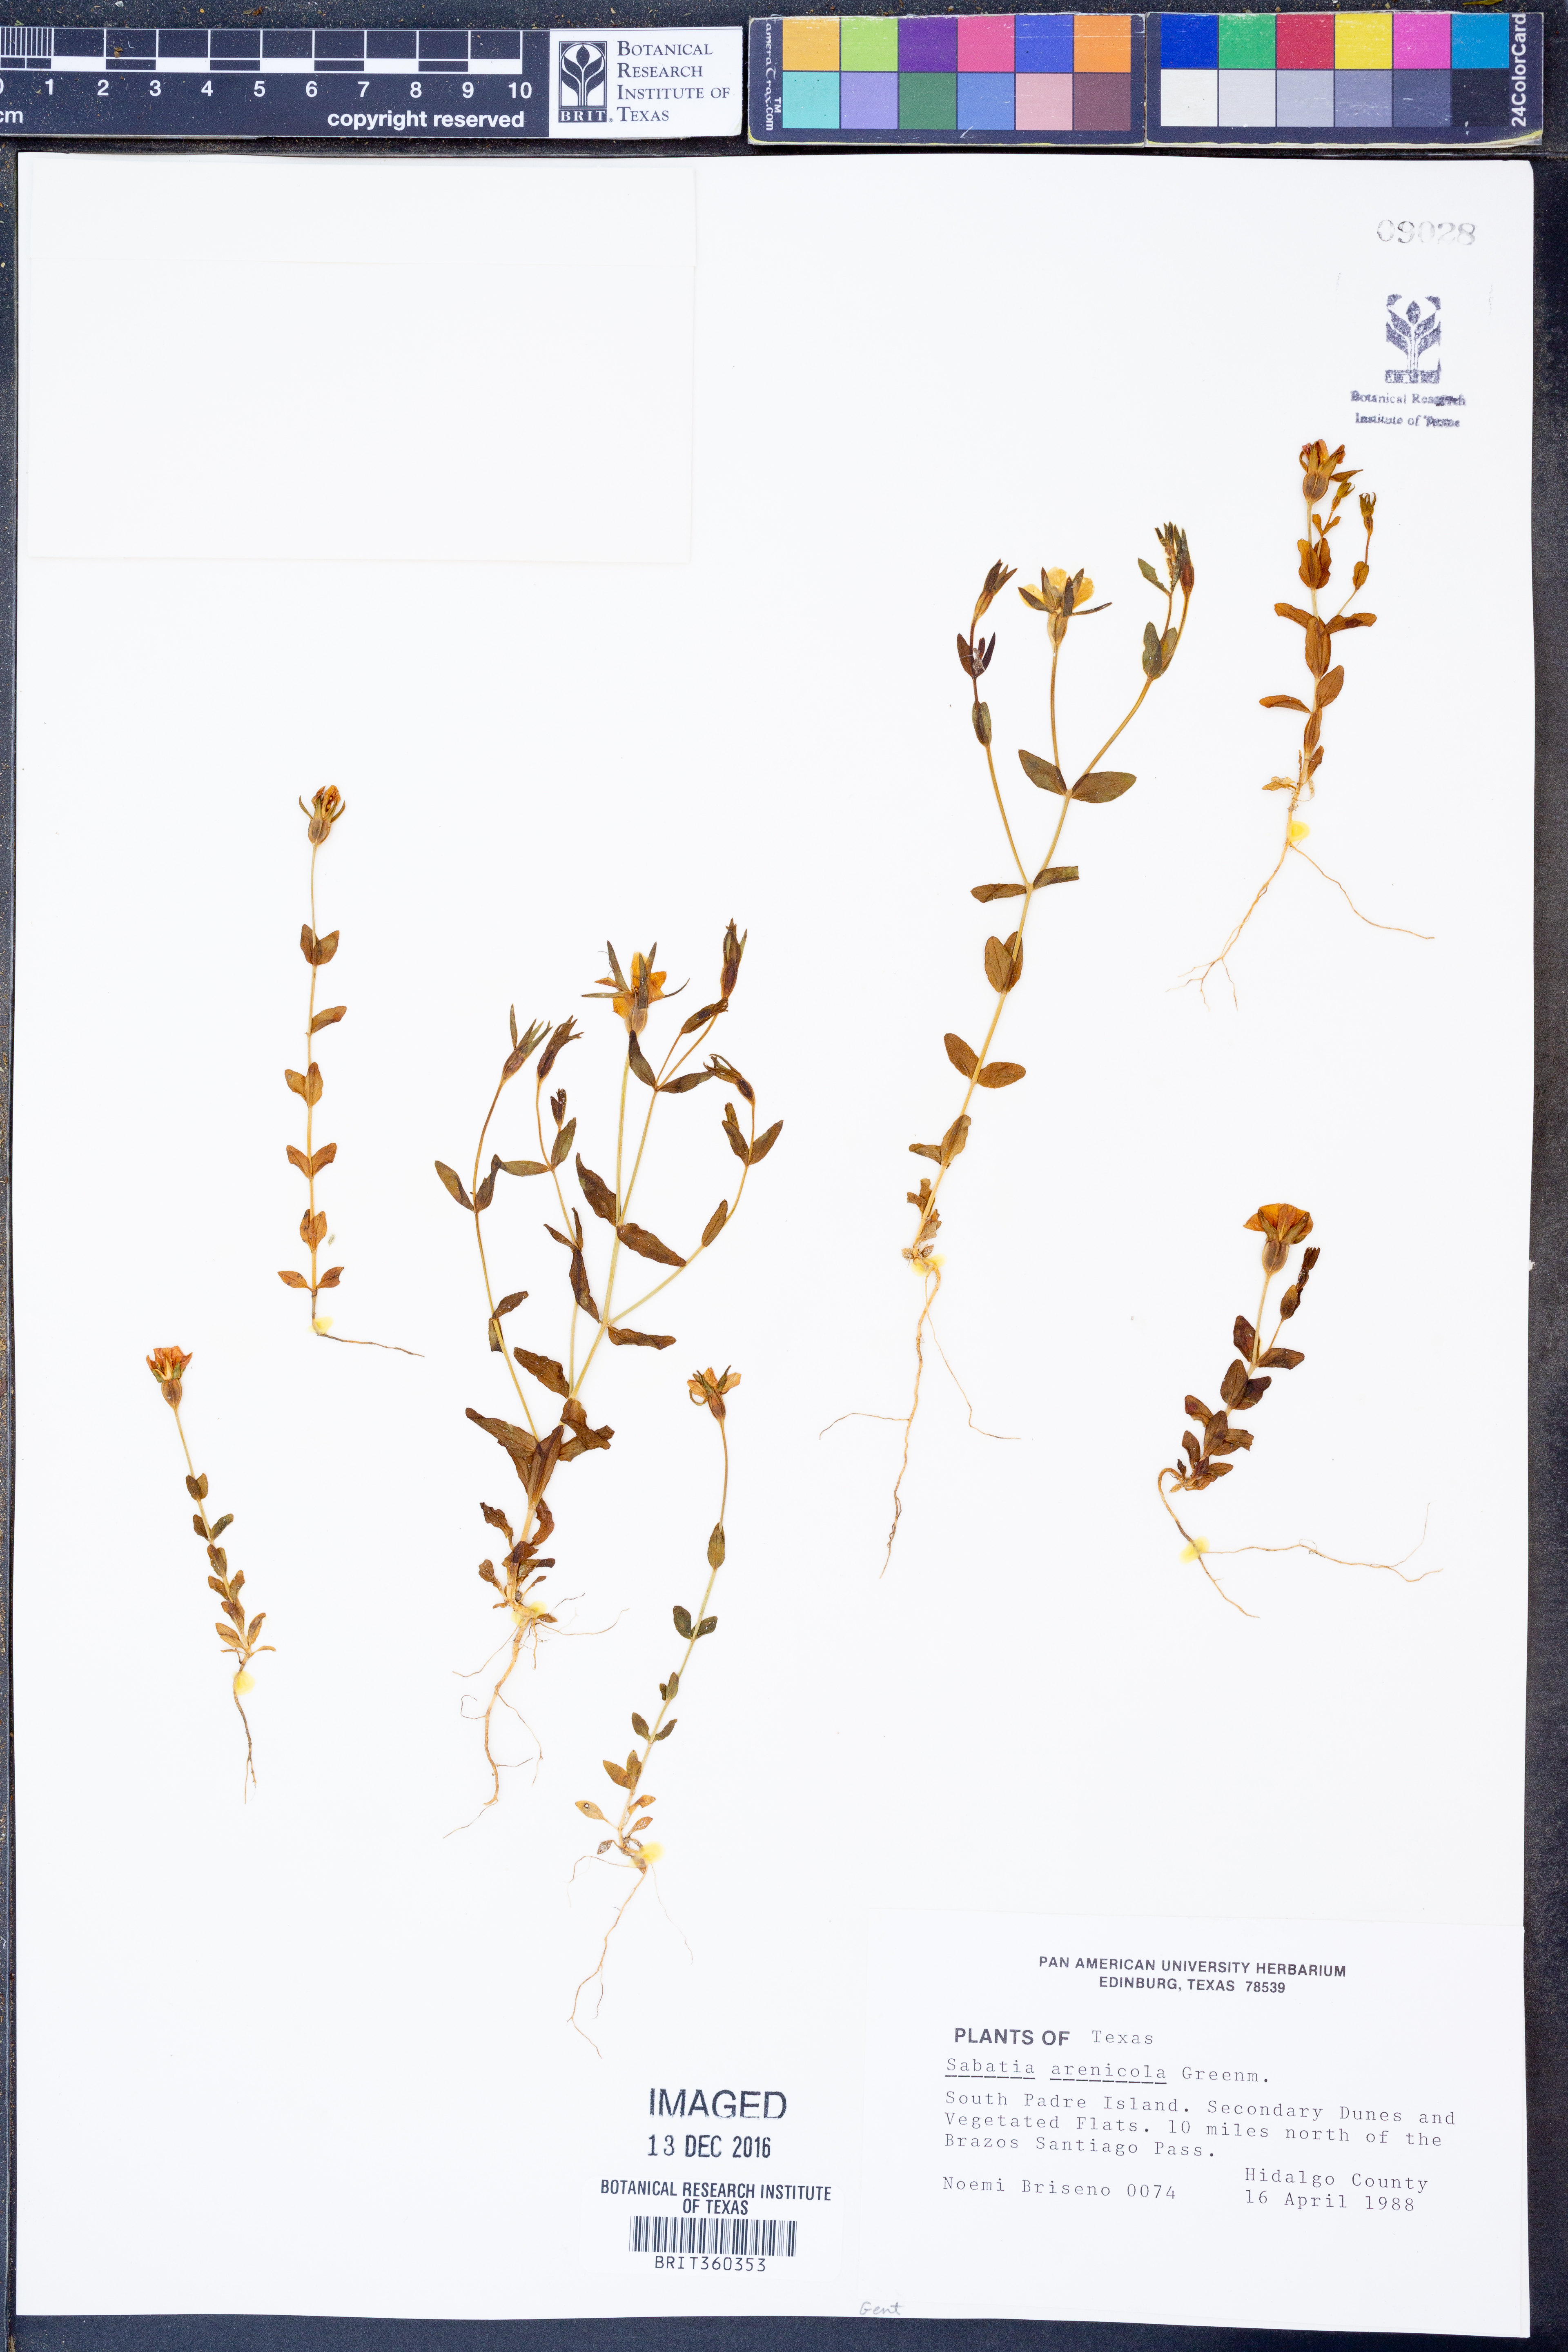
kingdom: Plantae
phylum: Tracheophyta
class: Magnoliopsida
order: Gentianales
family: Gentianaceae
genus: Sabatia
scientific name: Sabatia arenicola
